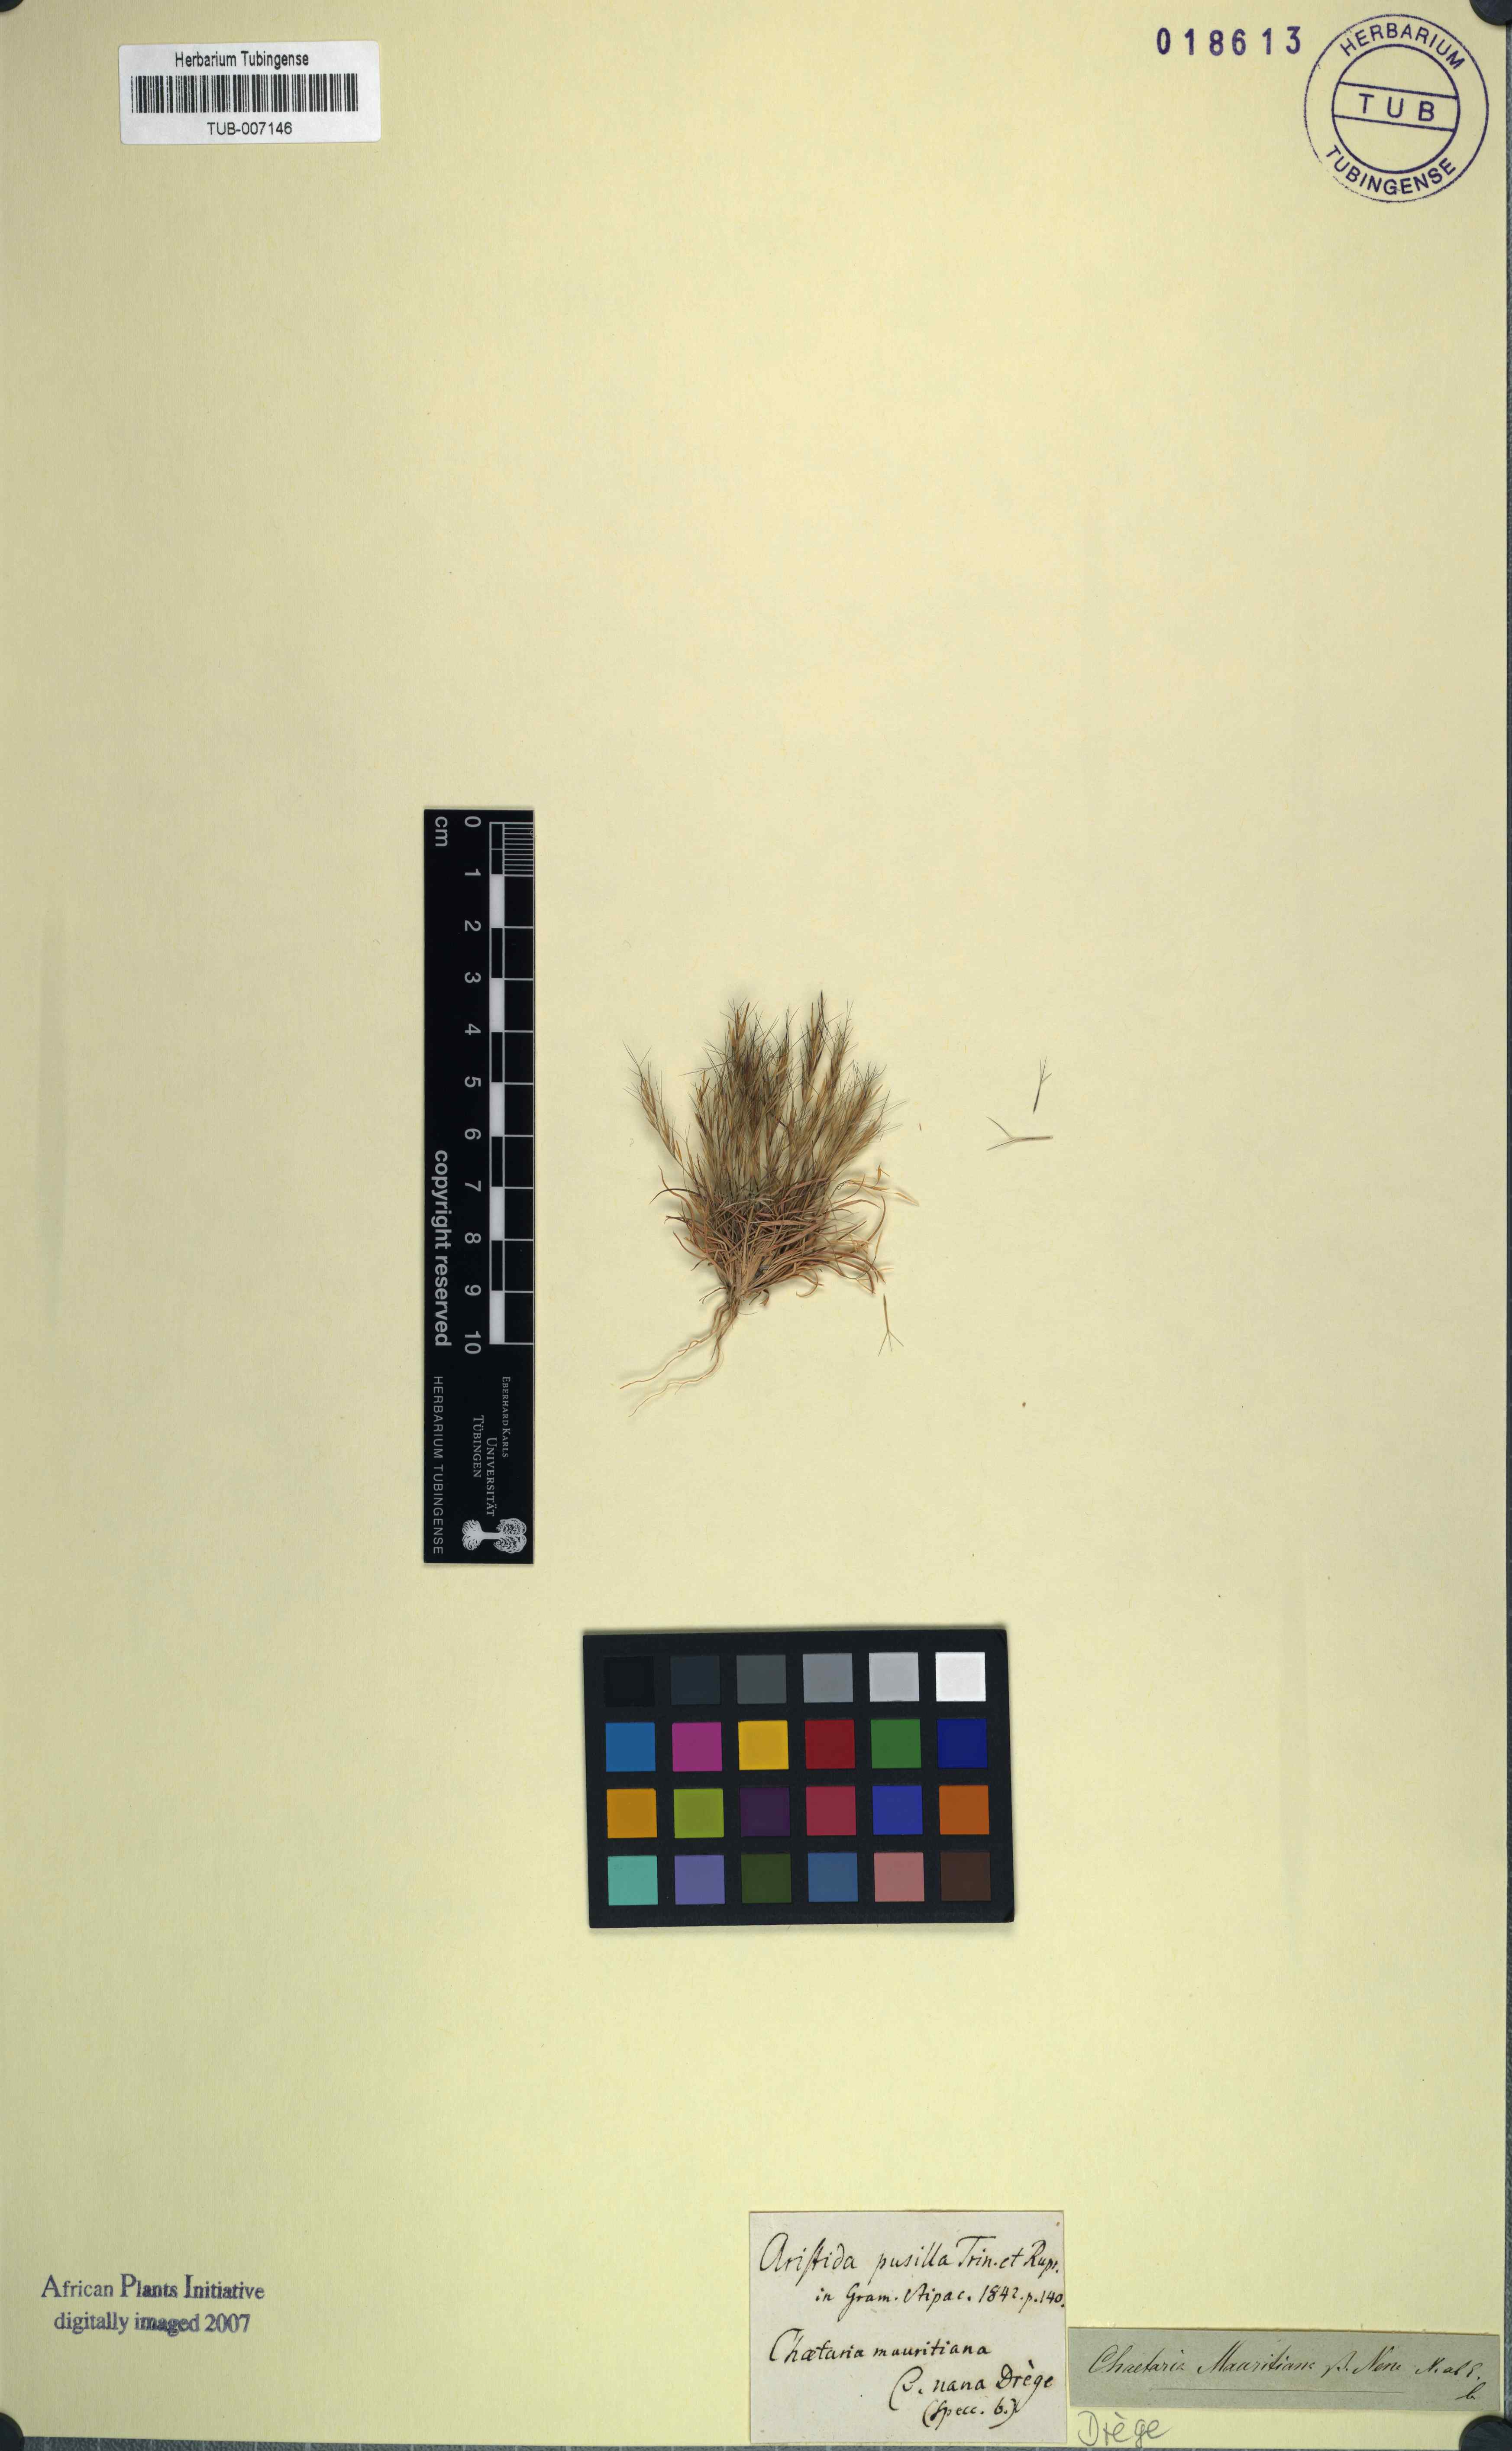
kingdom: Plantae
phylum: Tracheophyta
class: Liliopsida
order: Poales
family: Poaceae
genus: Aristida
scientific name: Aristida adscensionis
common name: Sixweeks threeawn
